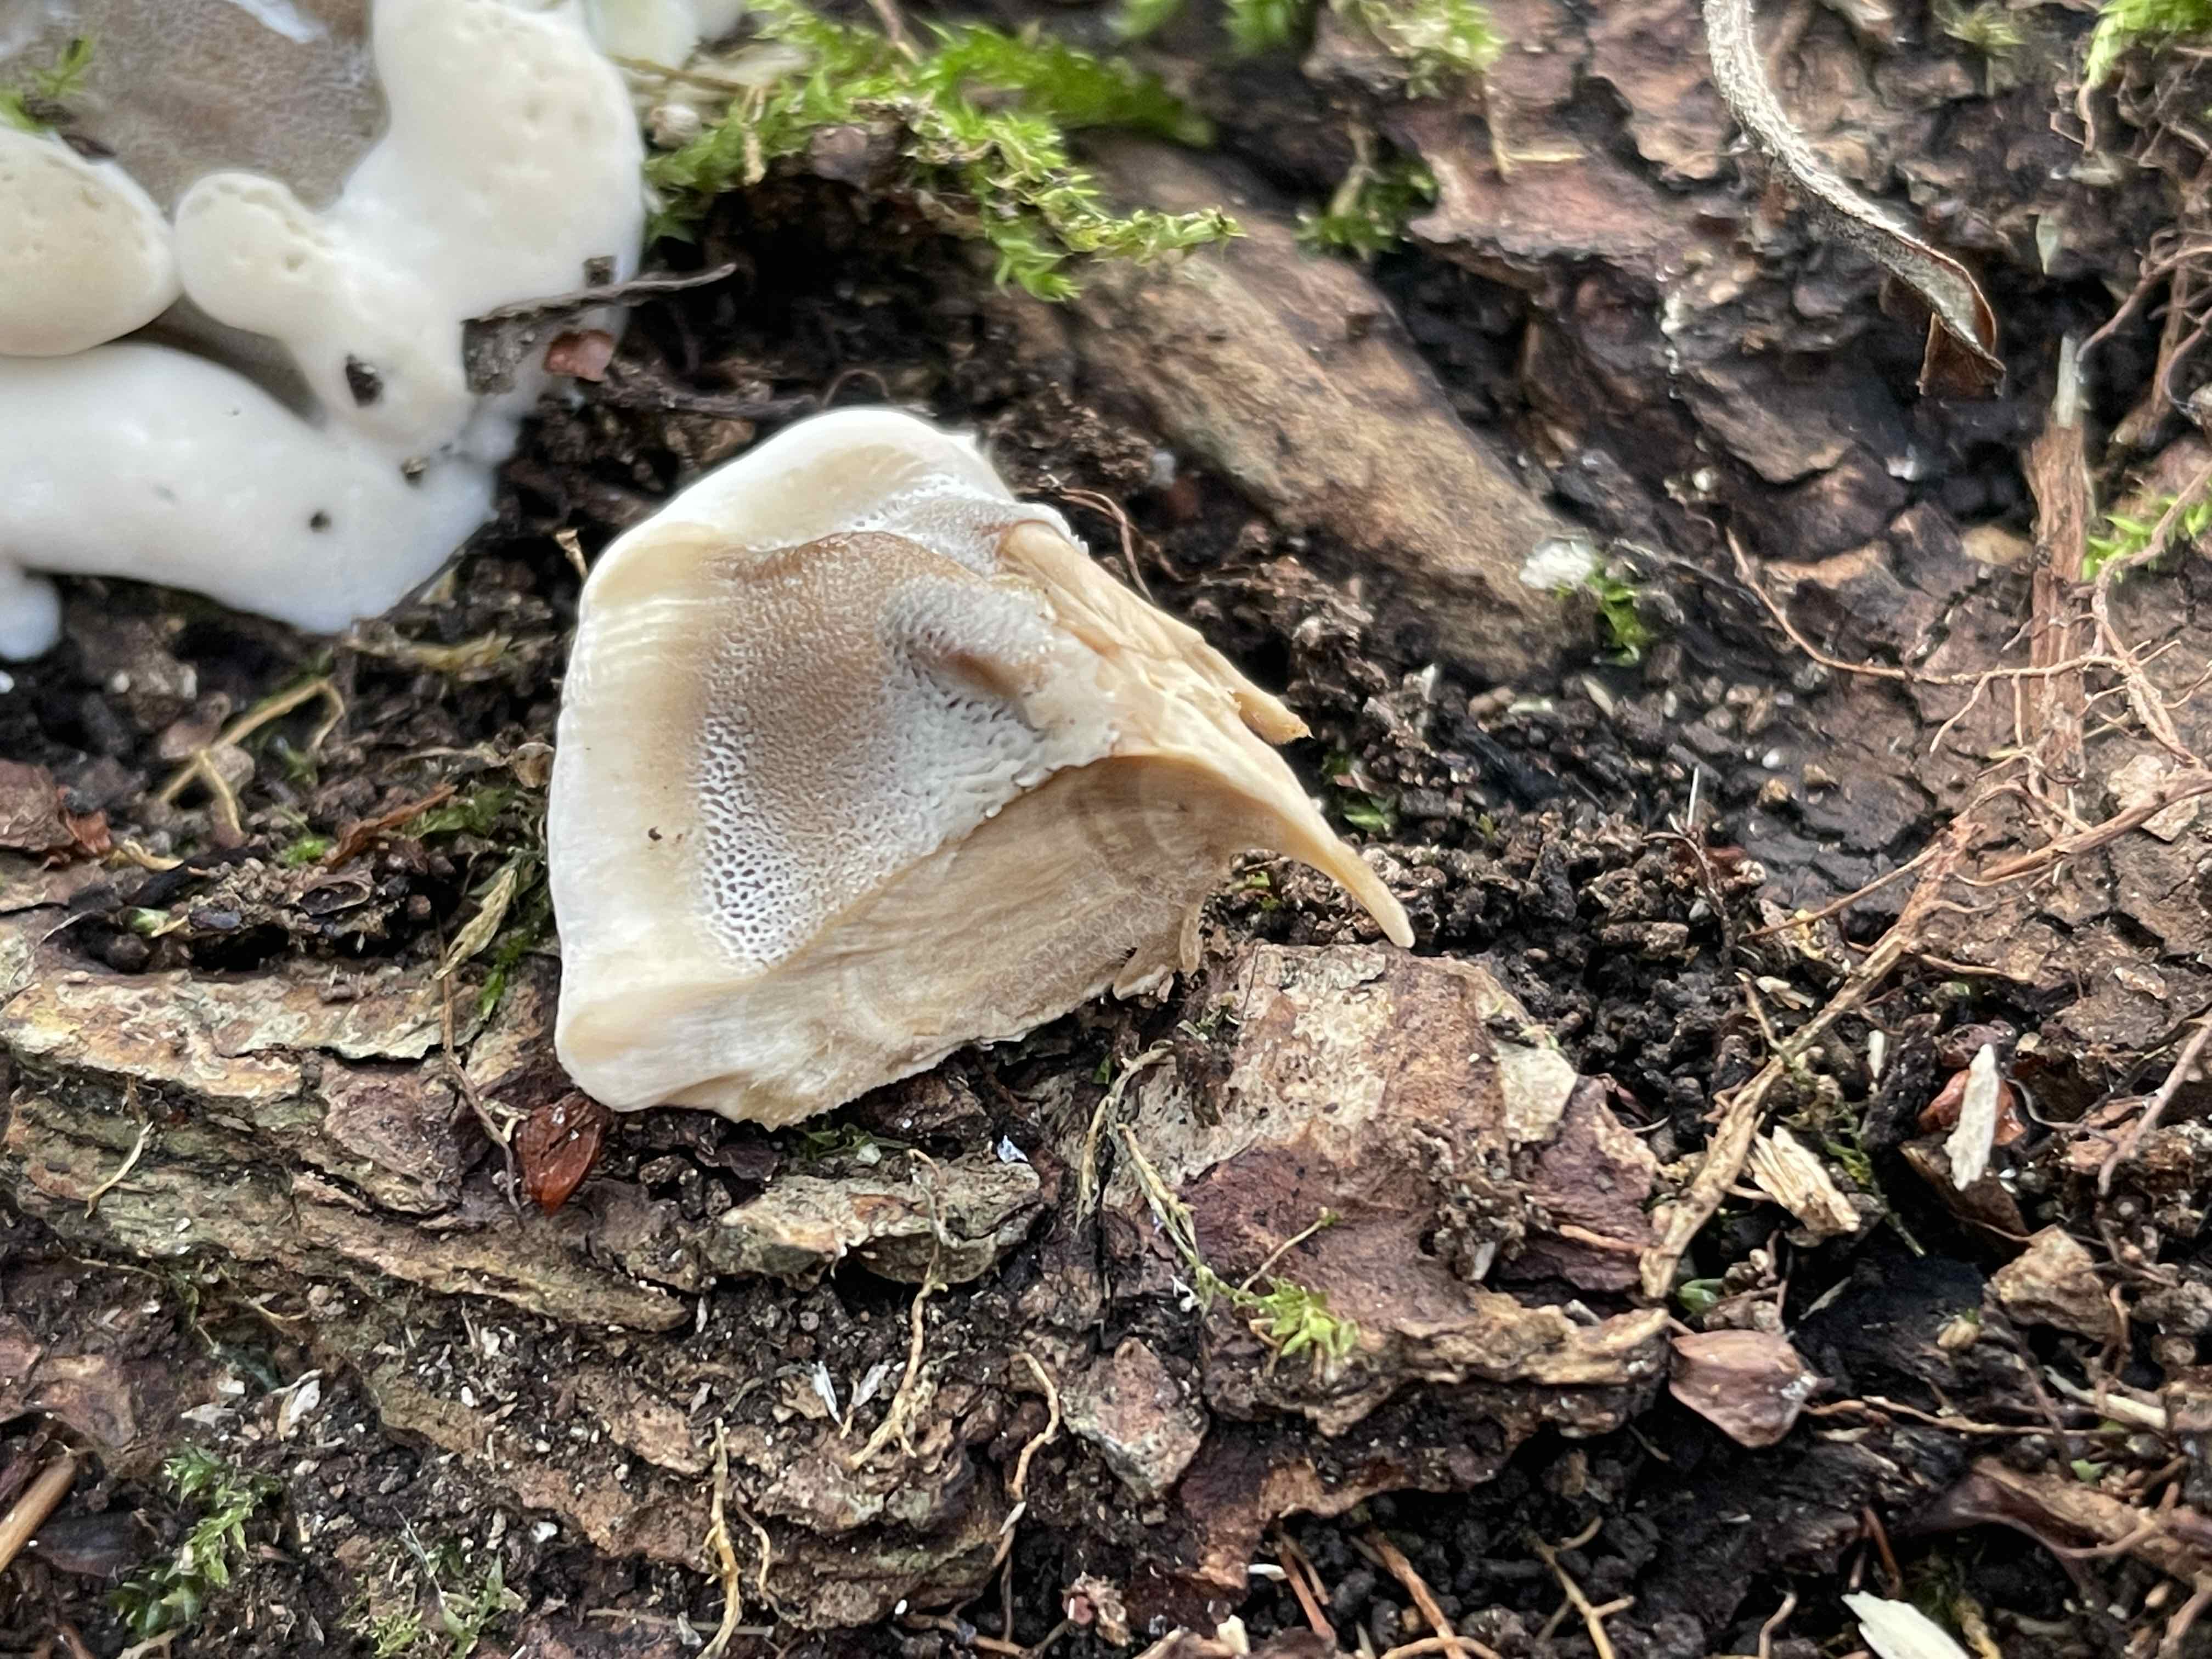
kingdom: Fungi
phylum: Basidiomycota
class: Agaricomycetes
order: Polyporales
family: Phanerochaetaceae
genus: Bjerkandera
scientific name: Bjerkandera fumosa
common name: grågul sodporesvamp
